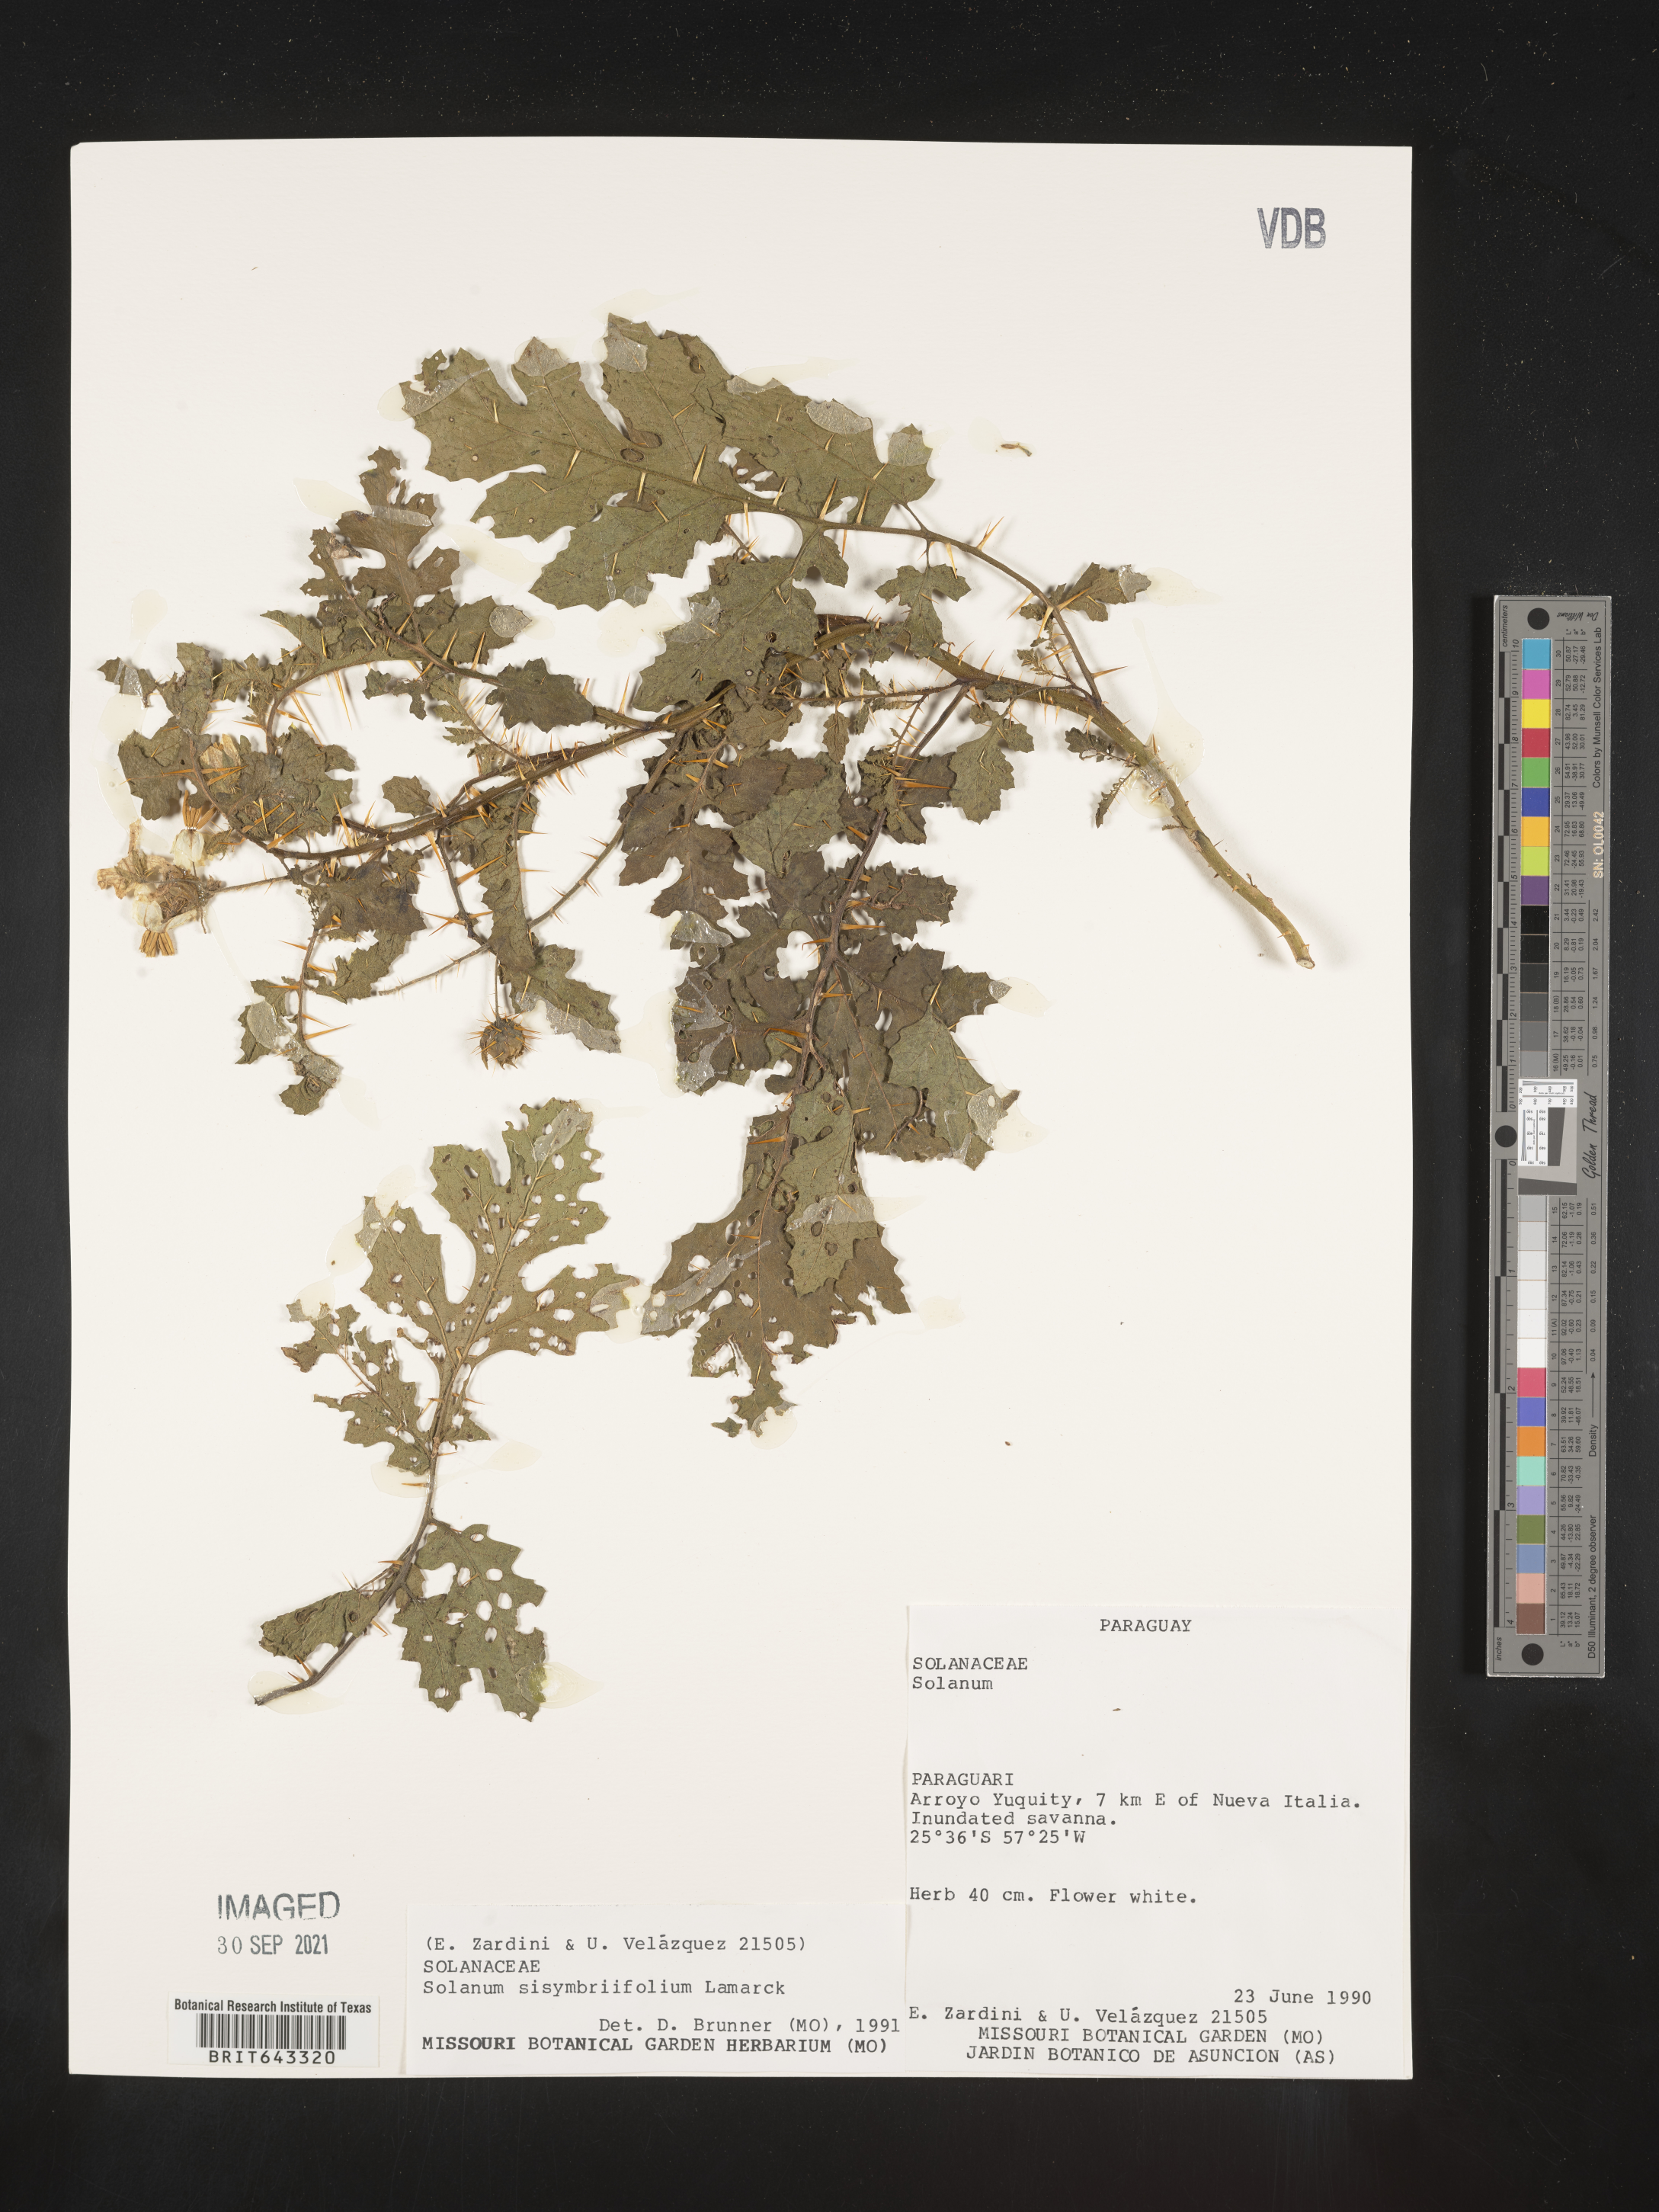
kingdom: Plantae
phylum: Tracheophyta
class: Magnoliopsida
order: Solanales
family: Solanaceae
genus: Solanum
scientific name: Solanum
